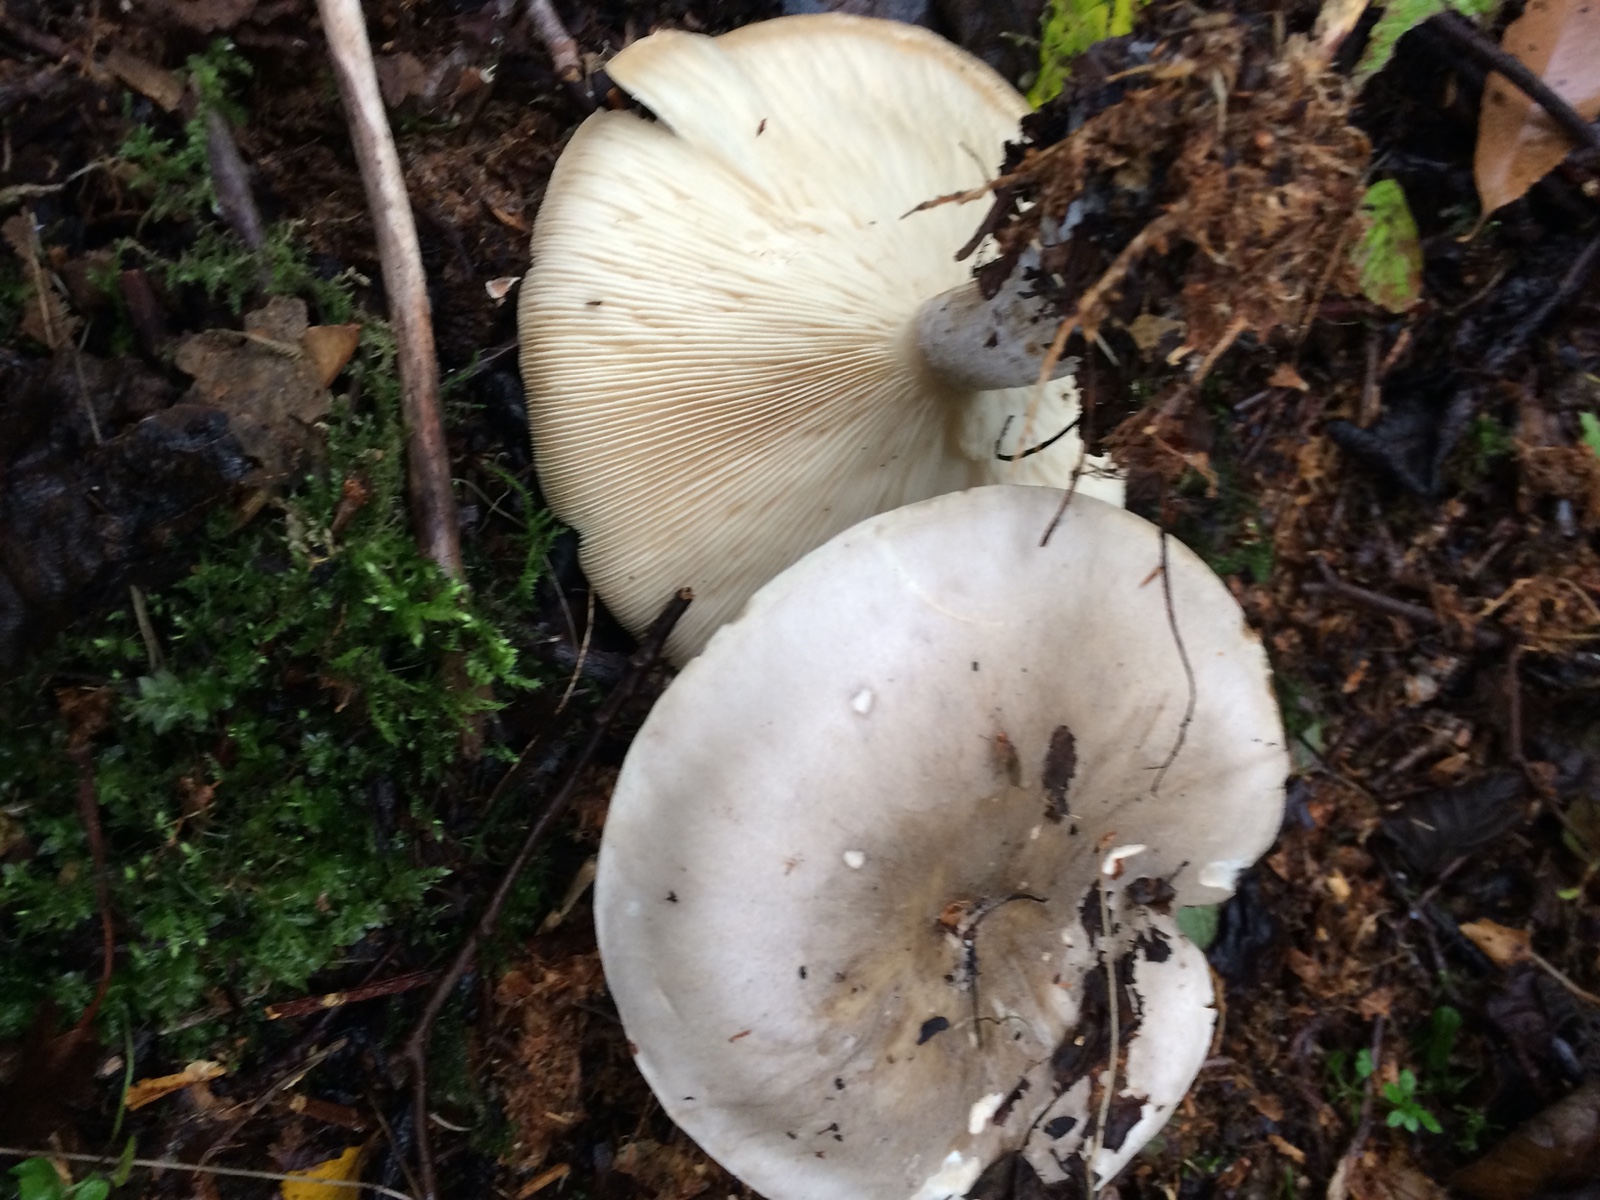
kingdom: Fungi
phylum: Basidiomycota
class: Agaricomycetes
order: Agaricales
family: Tricholomataceae
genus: Clitocybe
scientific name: Clitocybe nebularis
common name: tåge-tragthat
